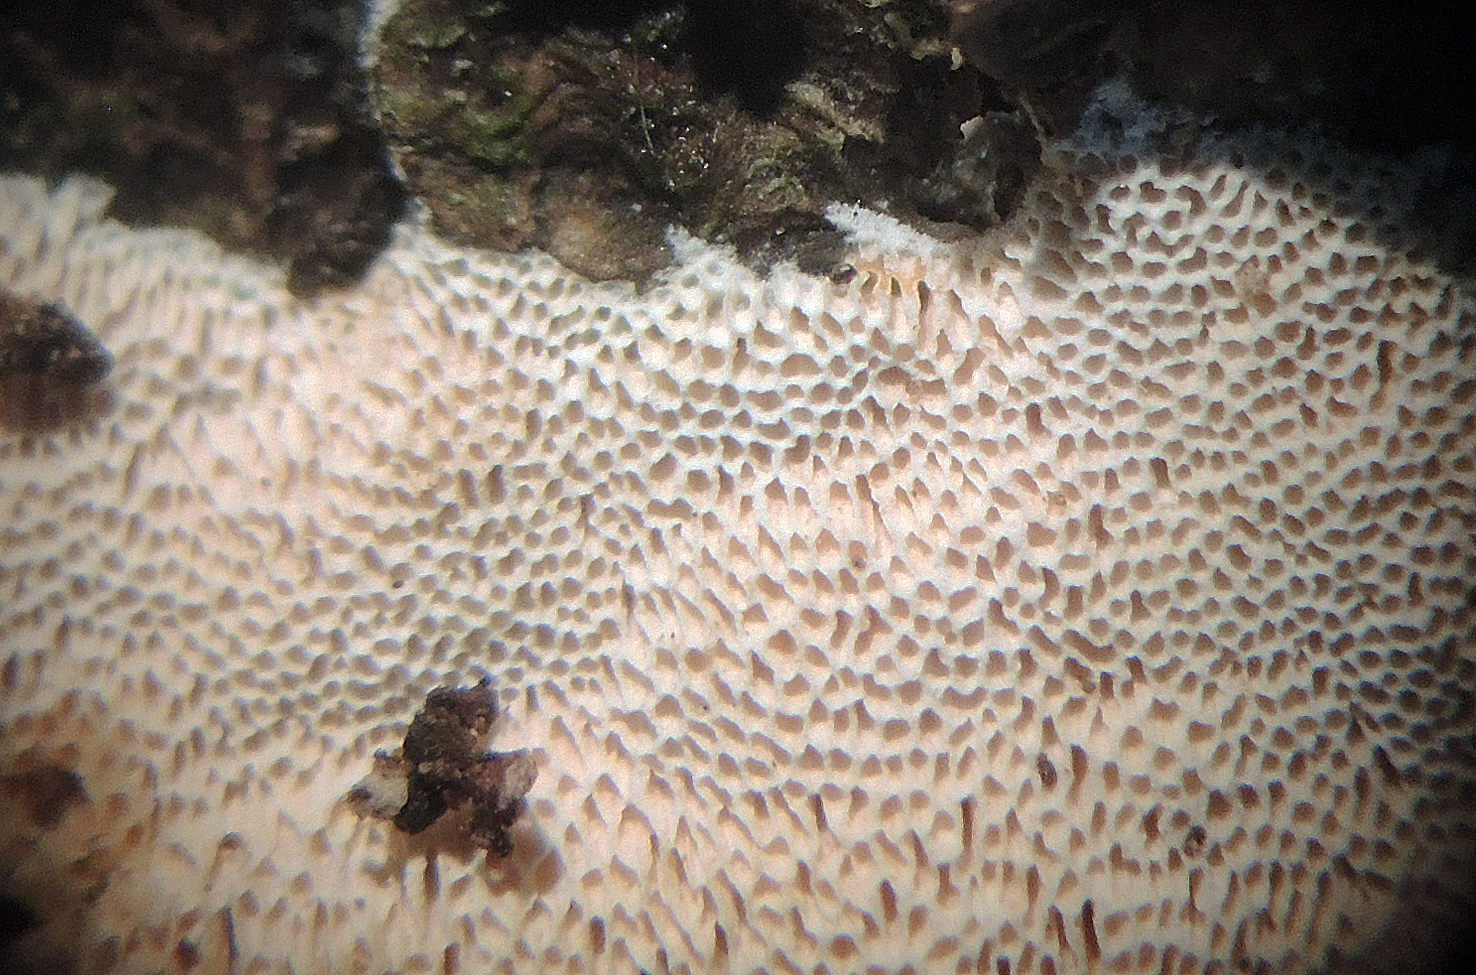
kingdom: Fungi
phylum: Basidiomycota
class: Agaricomycetes
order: Polyporales
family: Steccherinaceae
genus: Junghuhnia
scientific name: Junghuhnia nitida
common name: almindelig skønporesvamp
